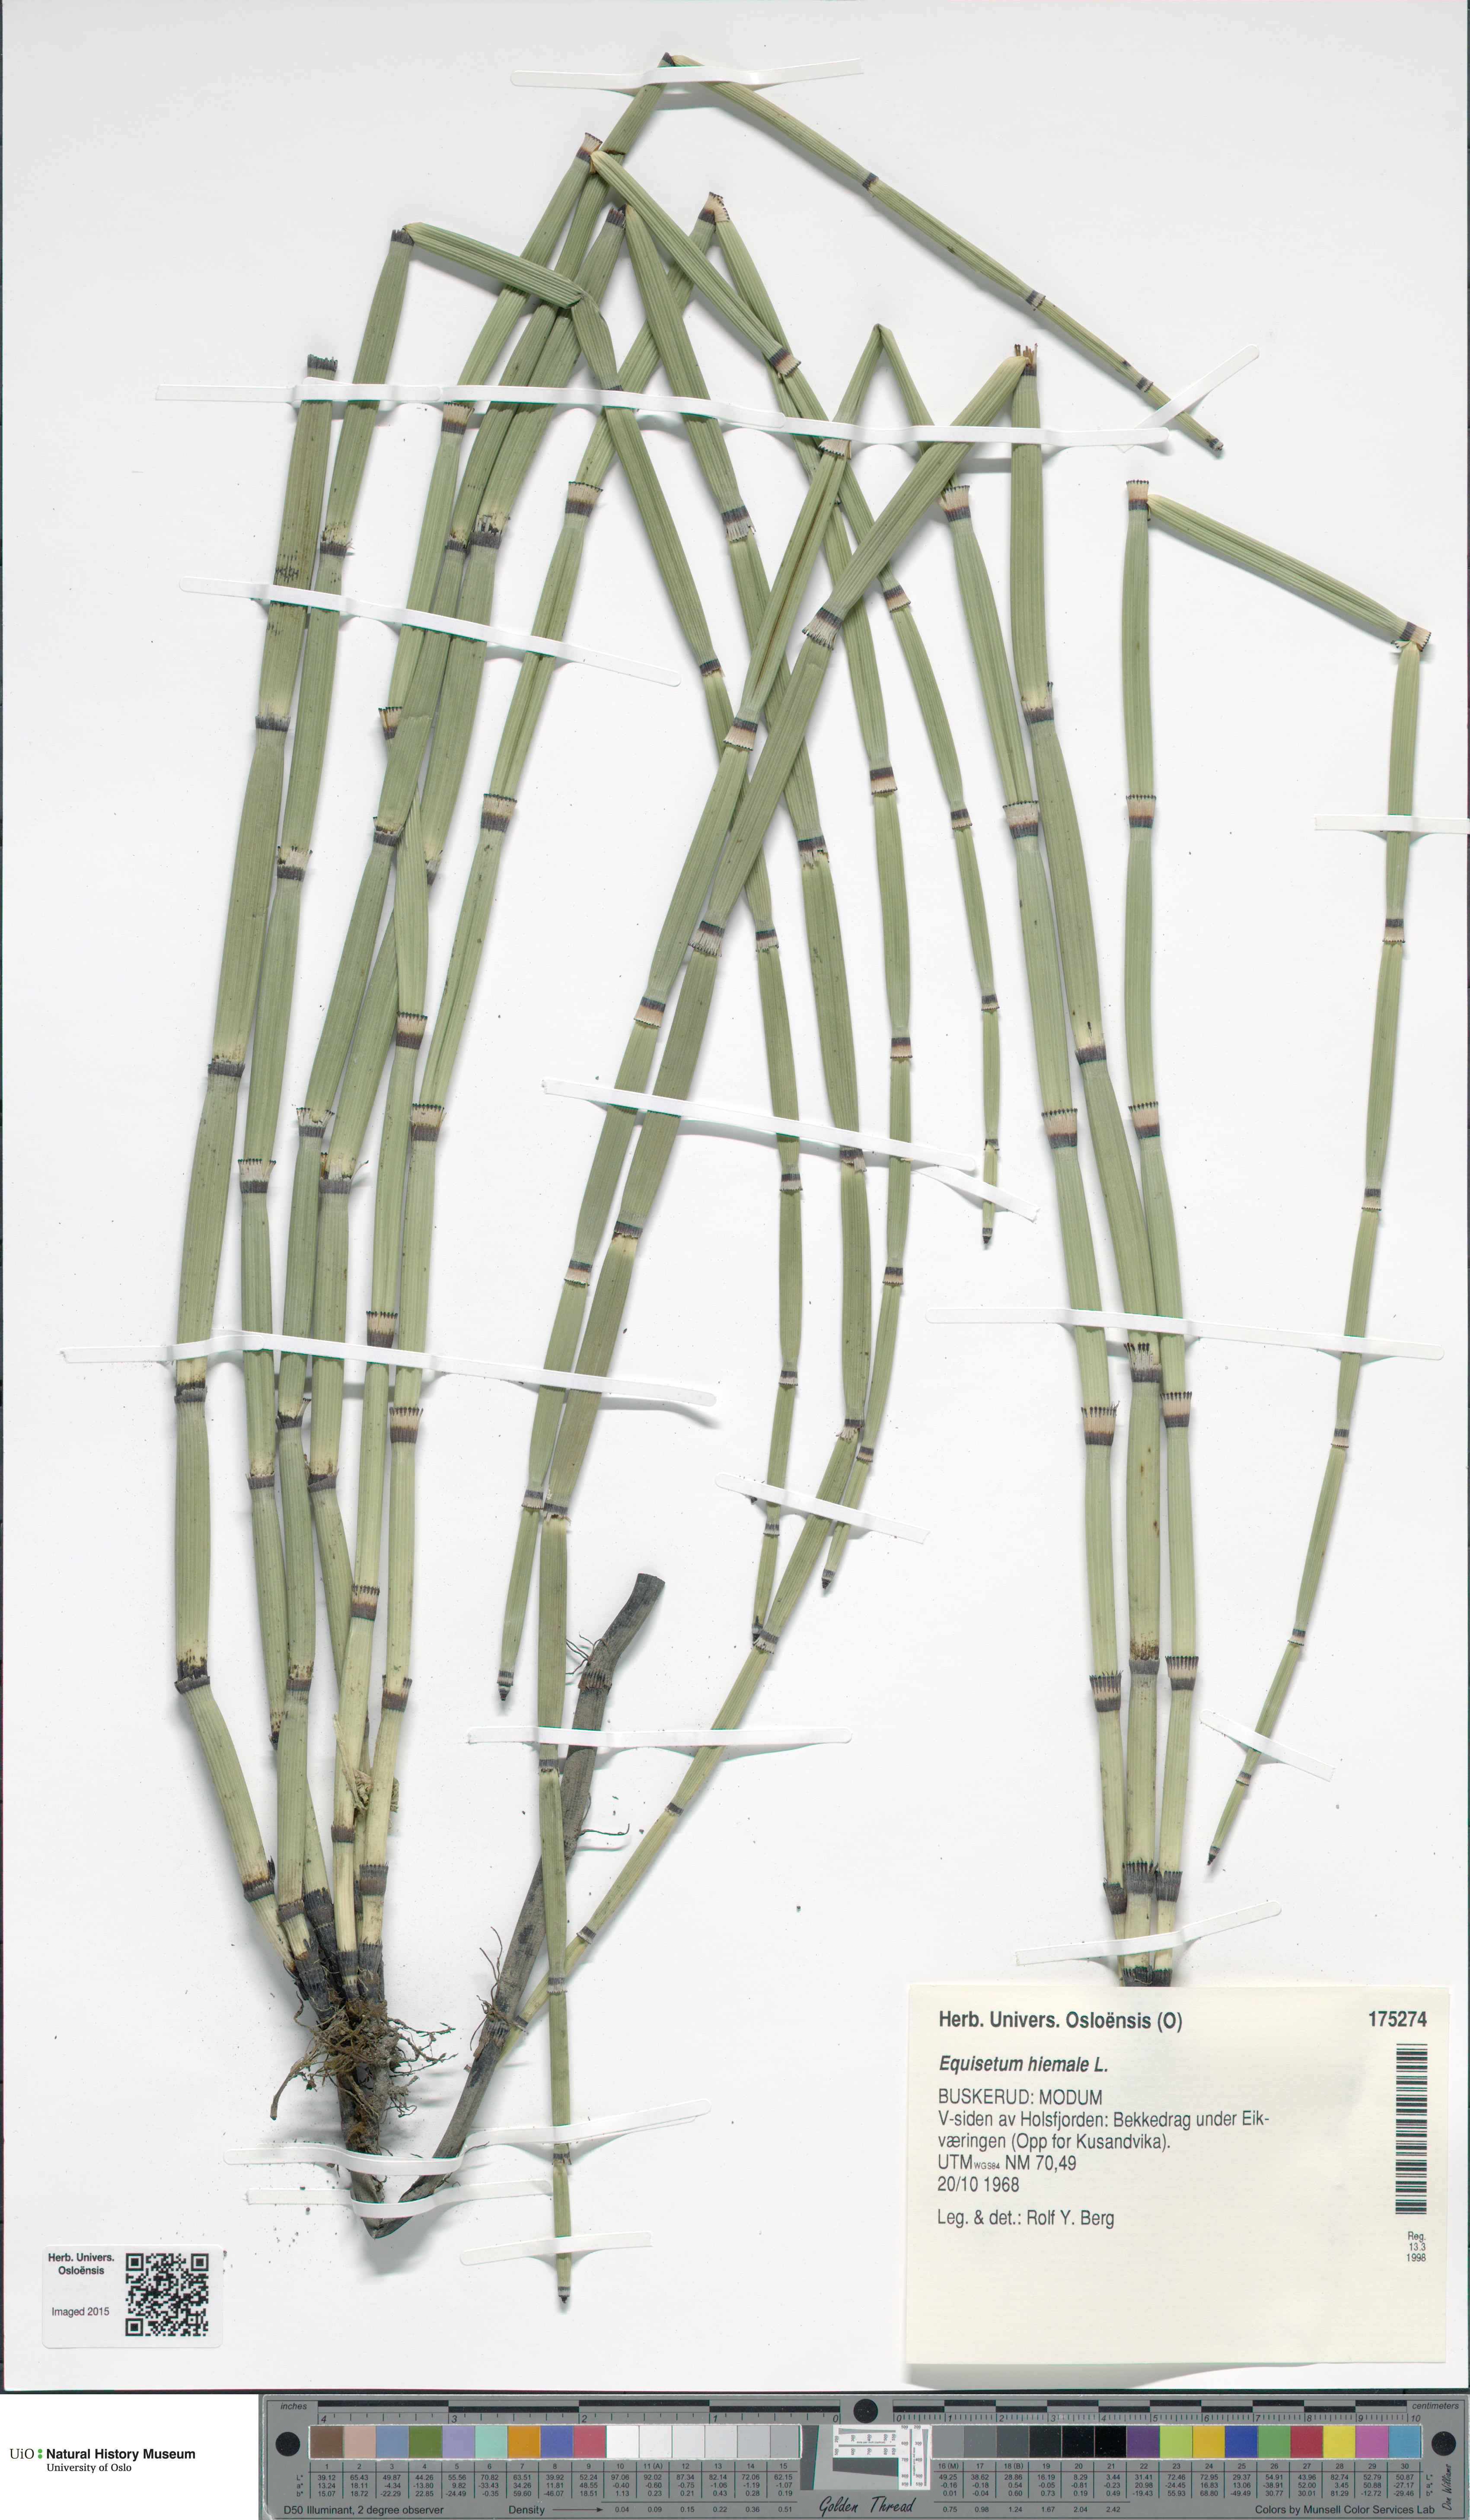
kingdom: Plantae
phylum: Tracheophyta
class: Polypodiopsida
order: Equisetales
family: Equisetaceae
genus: Equisetum
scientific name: Equisetum hyemale
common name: Rough horsetail
